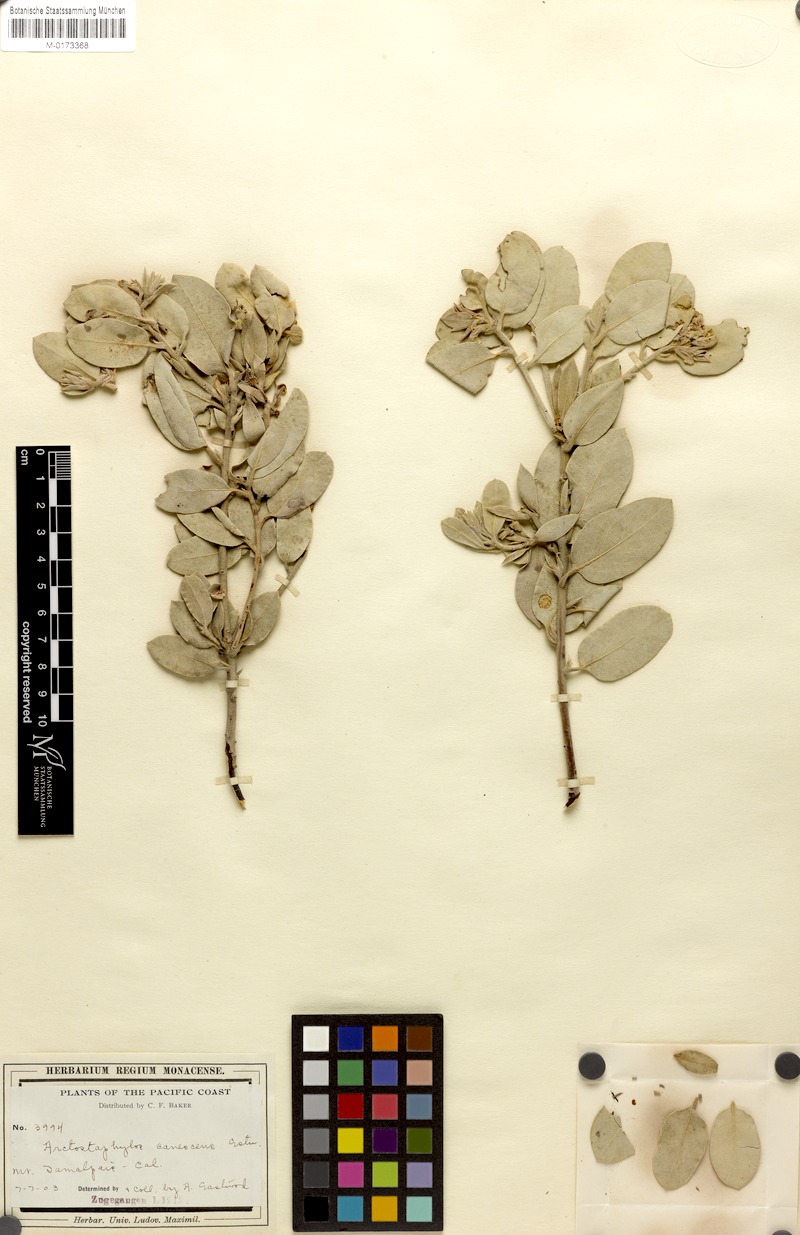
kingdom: Plantae
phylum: Tracheophyta
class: Magnoliopsida
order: Ericales
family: Ericaceae
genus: Arctostaphylos
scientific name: Arctostaphylos canescens
